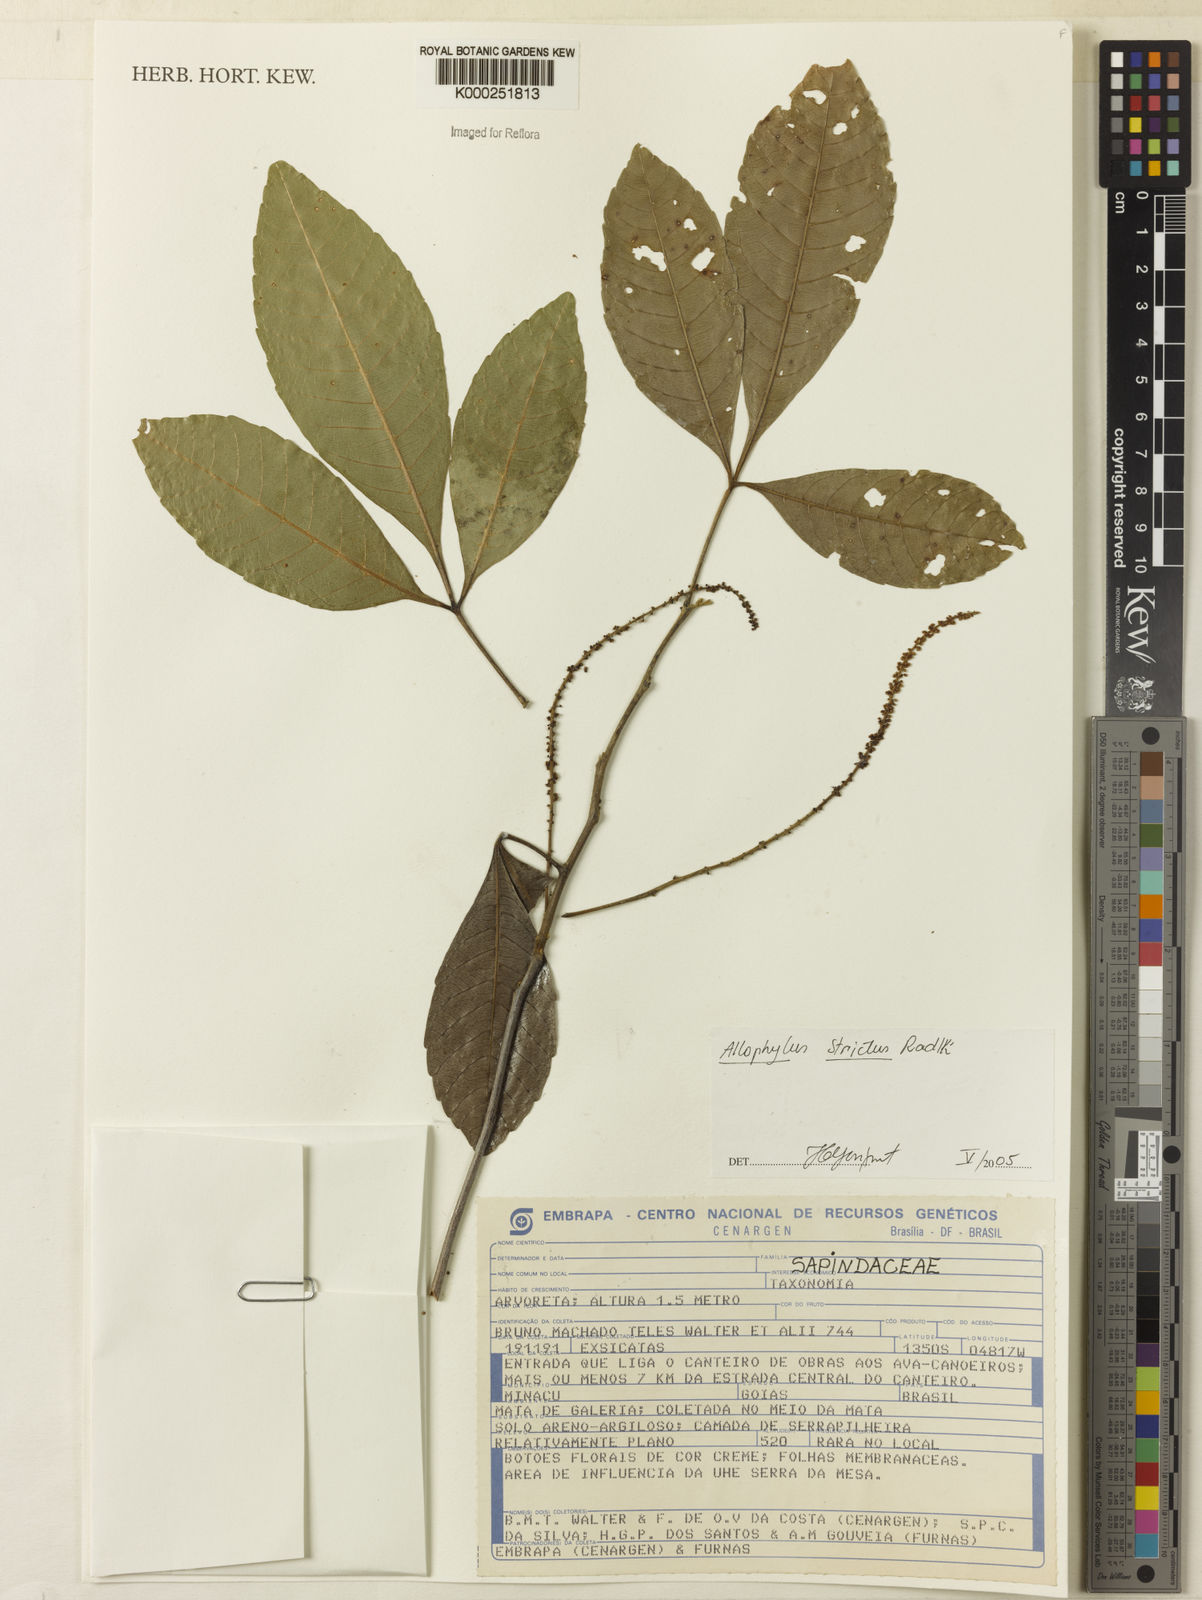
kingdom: Plantae
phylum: Tracheophyta
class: Magnoliopsida
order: Sapindales
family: Sapindaceae
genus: Allophylus
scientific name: Allophylus strictus
